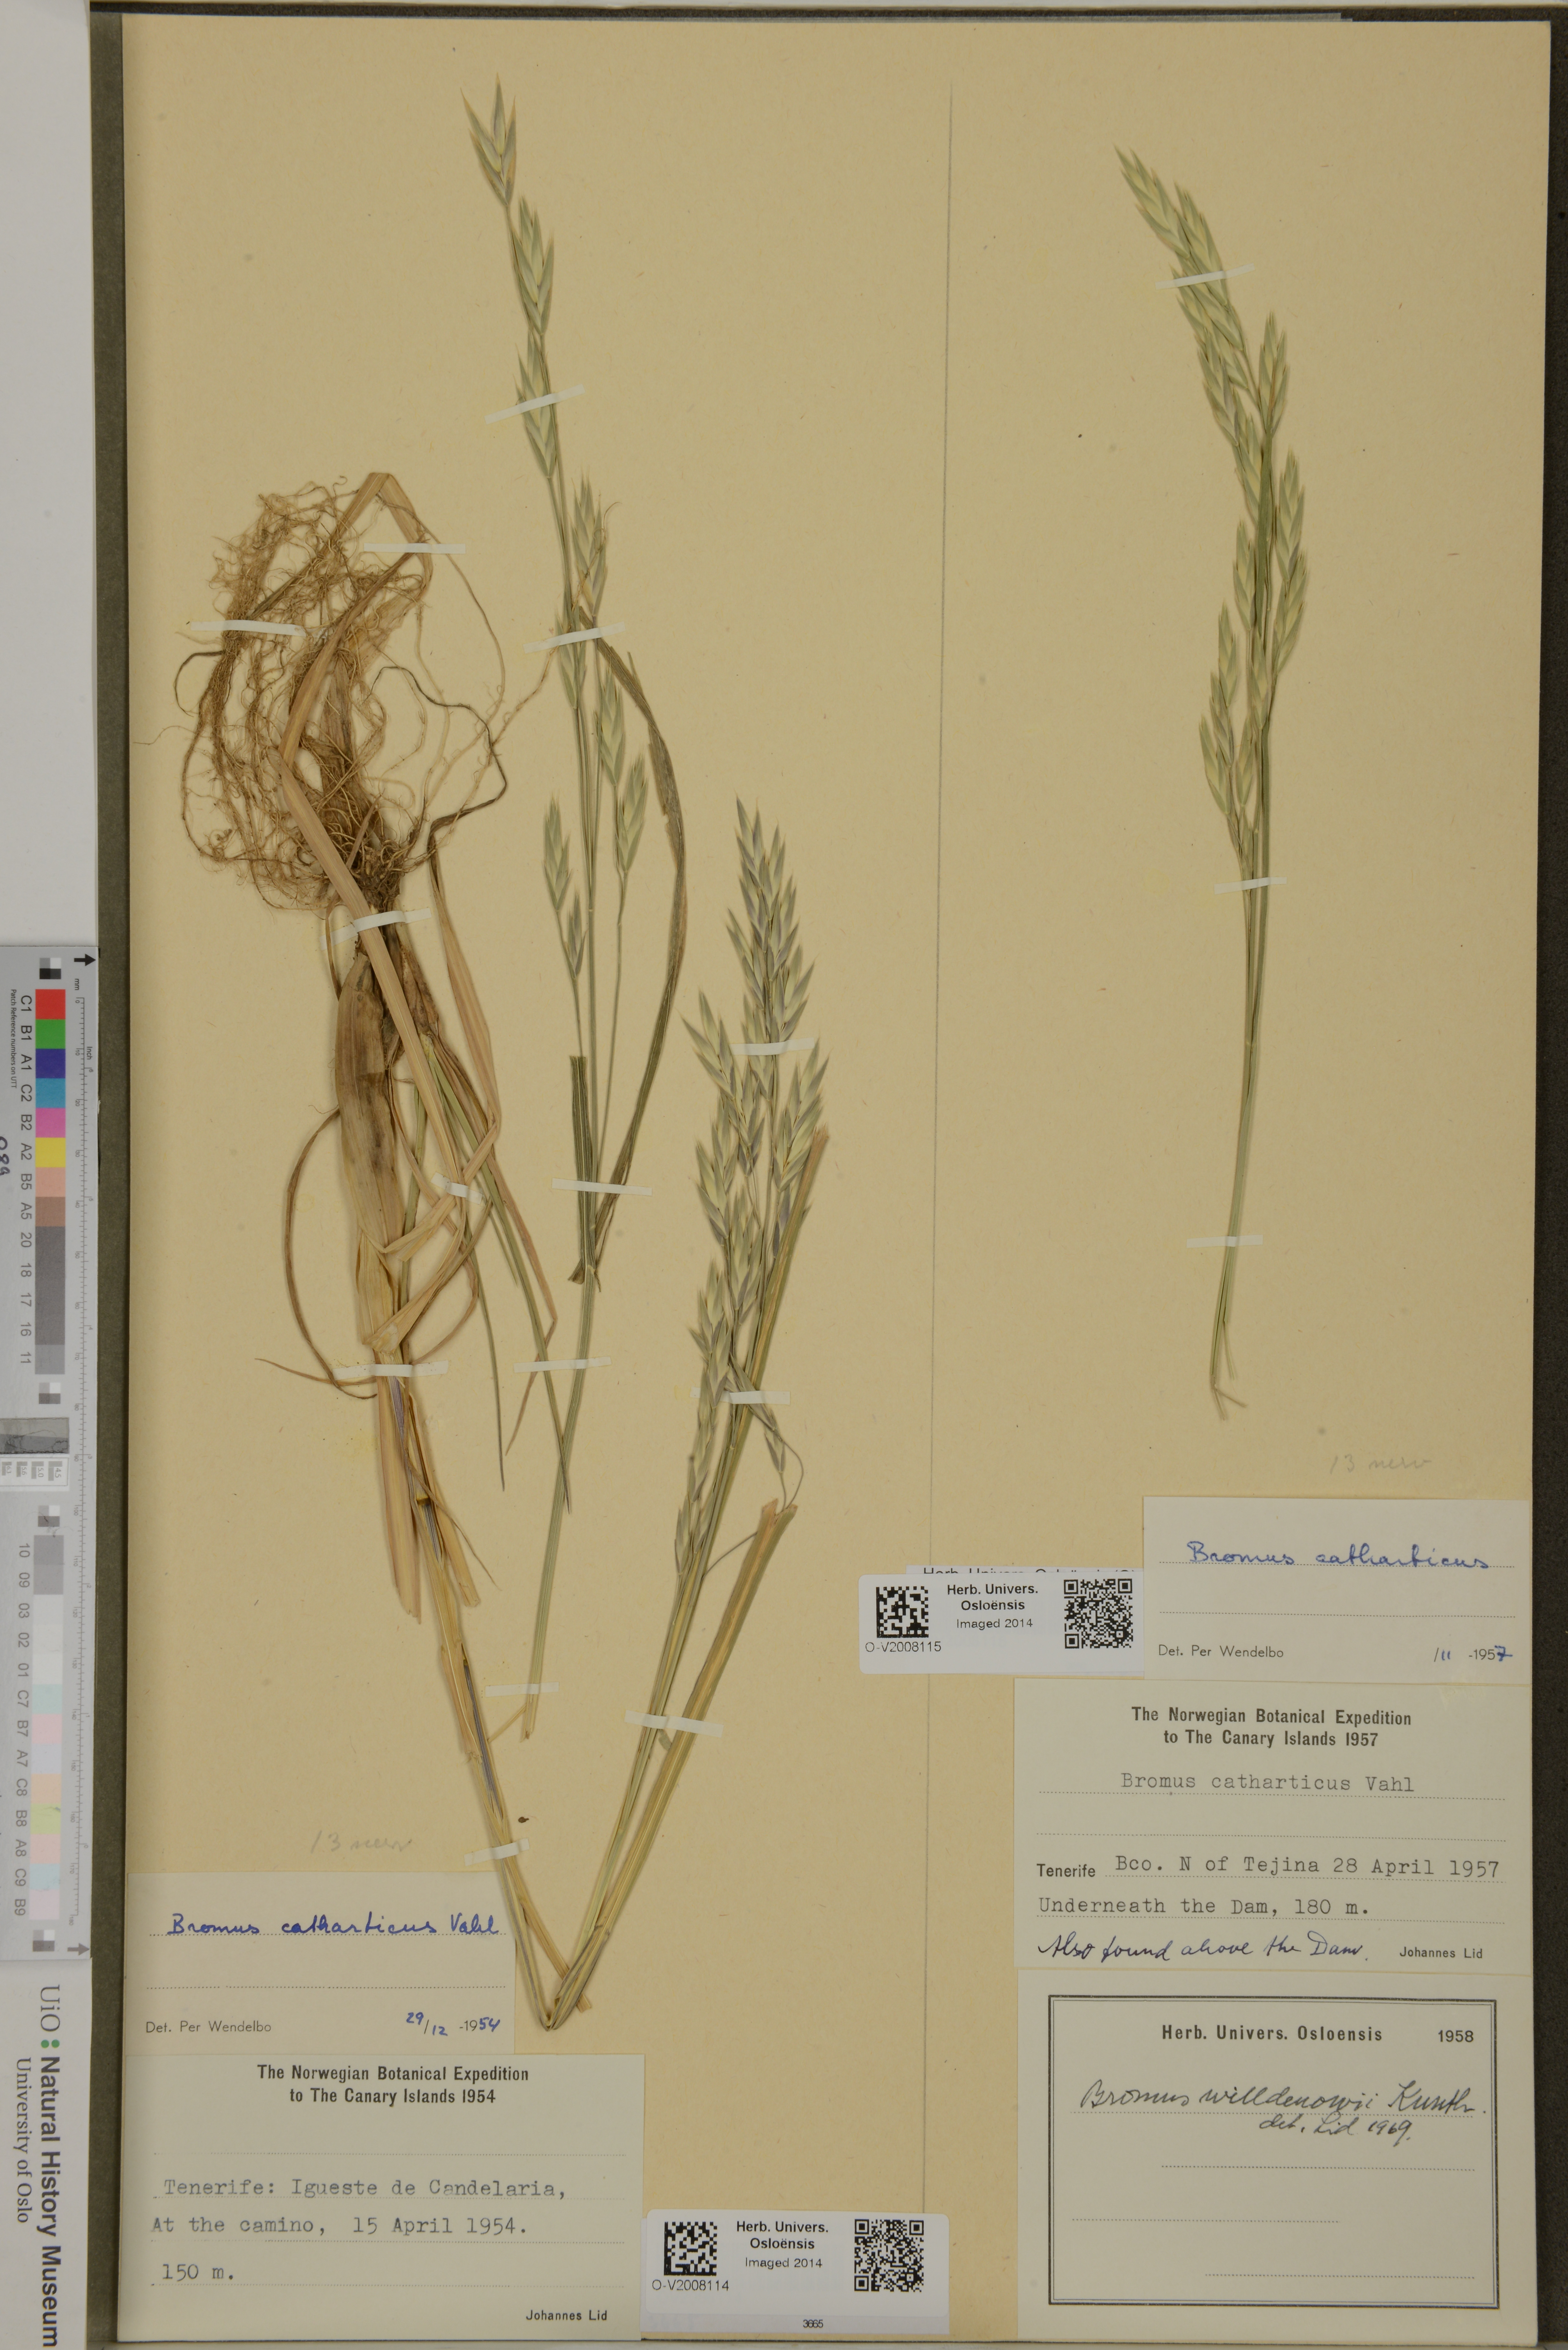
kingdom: Plantae
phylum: Tracheophyta
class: Liliopsida
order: Poales
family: Poaceae
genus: Bromus
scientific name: Bromus catharticus
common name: Rescuegrass
